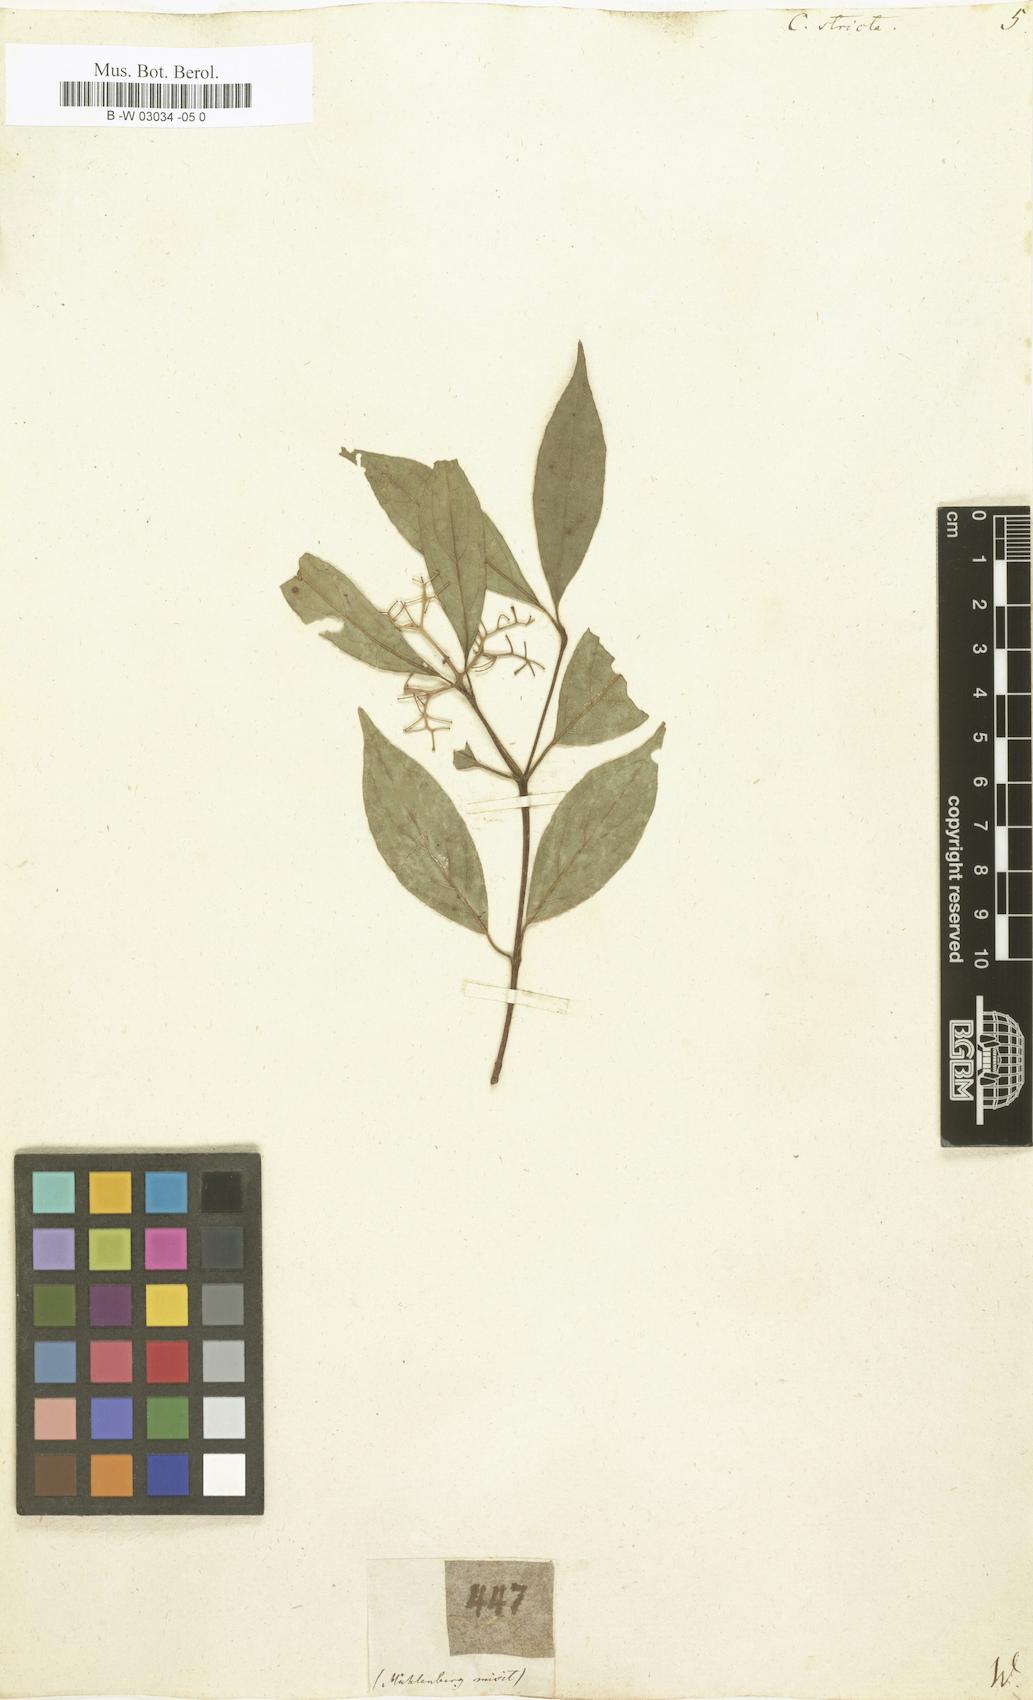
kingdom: Plantae
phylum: Tracheophyta
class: Magnoliopsida
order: Cornales
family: Cornaceae
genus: Cornus
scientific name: Cornus foemina
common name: Swamp dogwood
